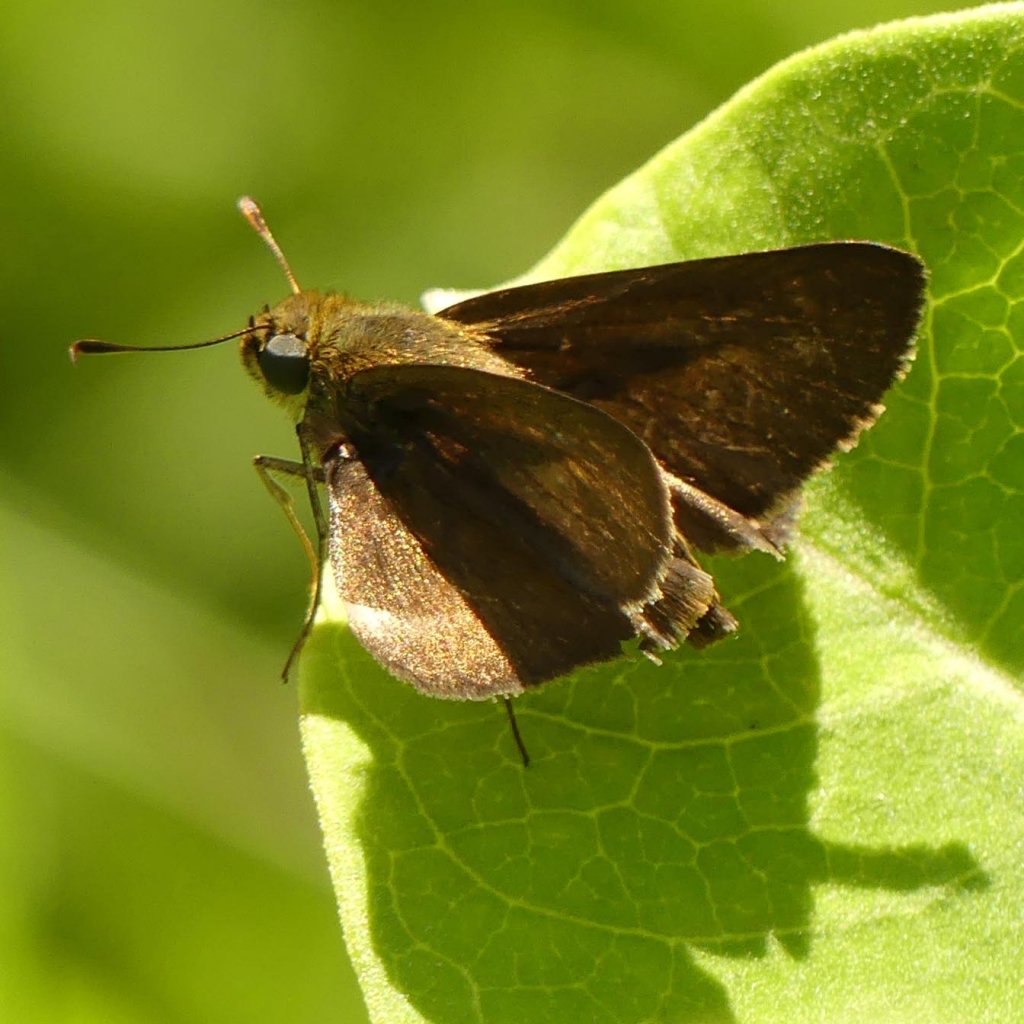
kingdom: Animalia
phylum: Arthropoda
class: Insecta
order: Lepidoptera
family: Hesperiidae
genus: Euphyes
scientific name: Euphyes vestris
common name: Dun Skipper
